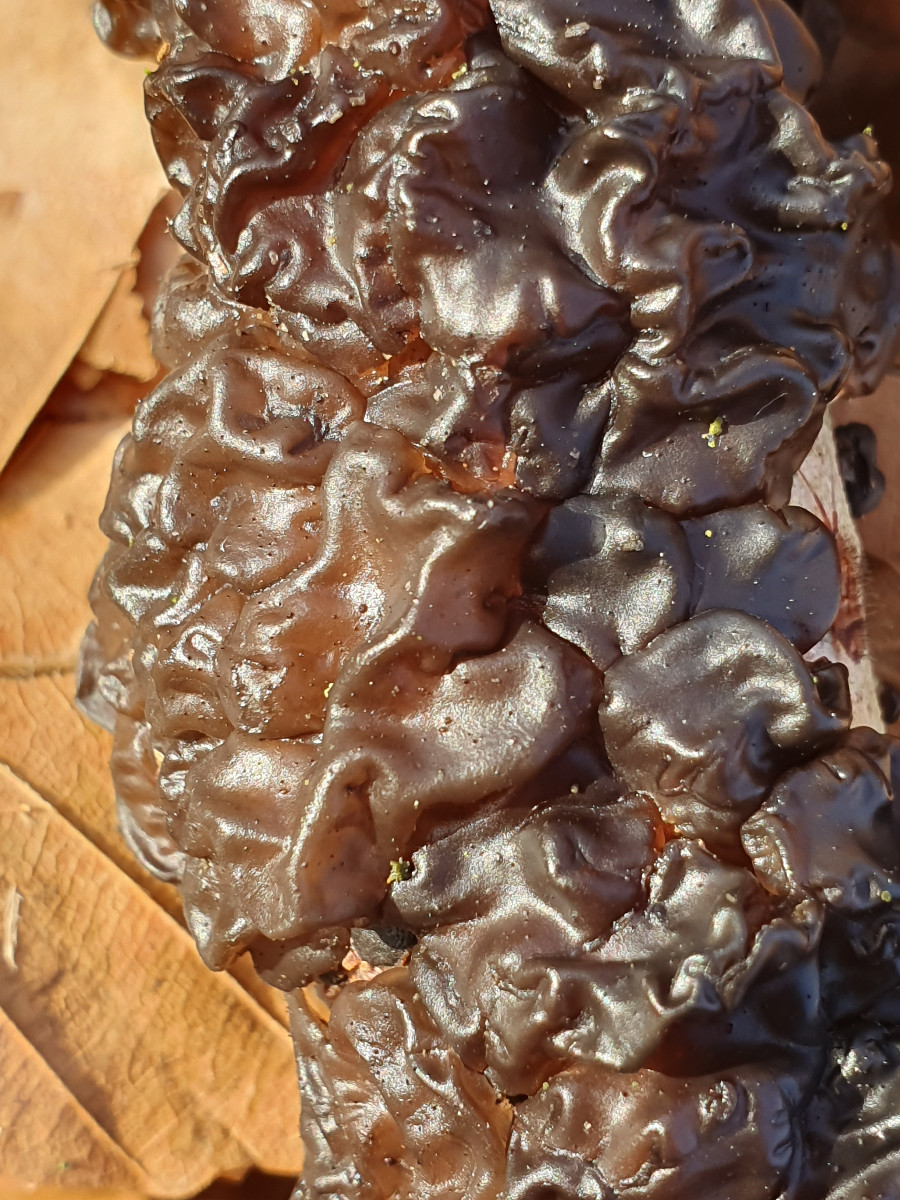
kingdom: Fungi
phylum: Basidiomycota
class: Agaricomycetes
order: Auriculariales
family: Auriculariaceae
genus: Exidia
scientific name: Exidia nigricans
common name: almindelig bævretop
